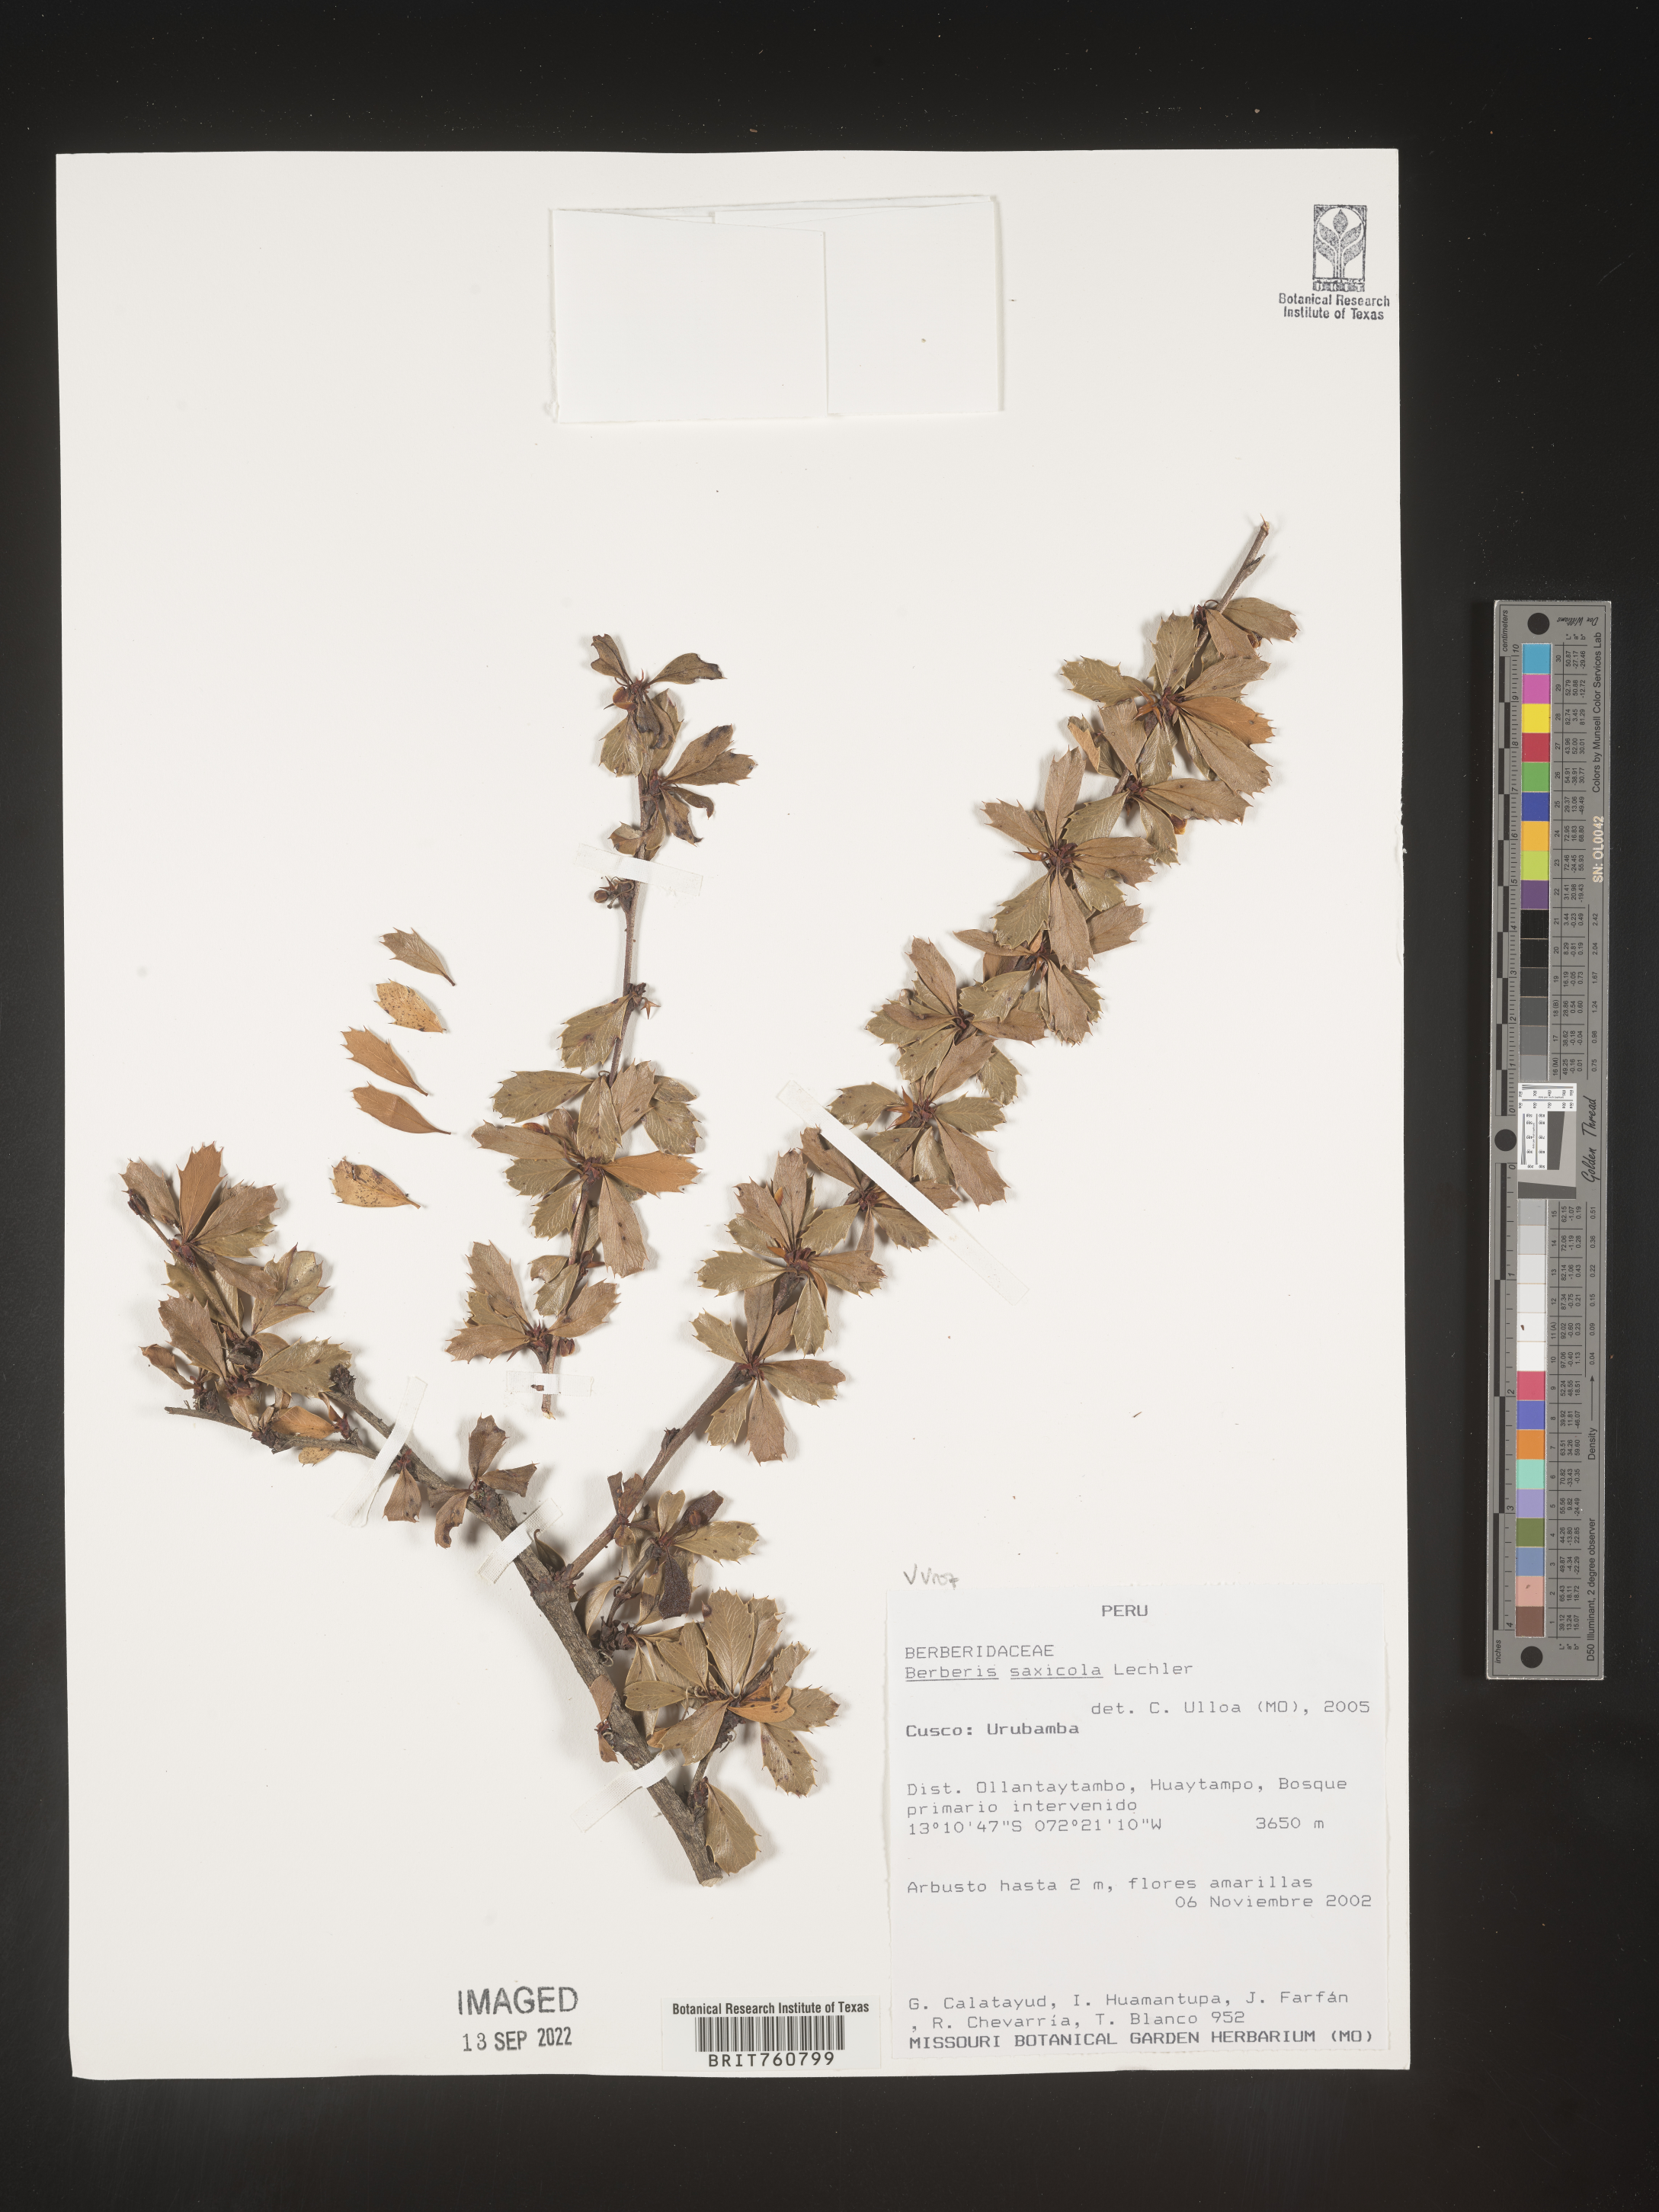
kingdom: Plantae
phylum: Tracheophyta
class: Magnoliopsida
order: Ranunculales
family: Berberidaceae
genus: Berberis
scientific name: Berberis
